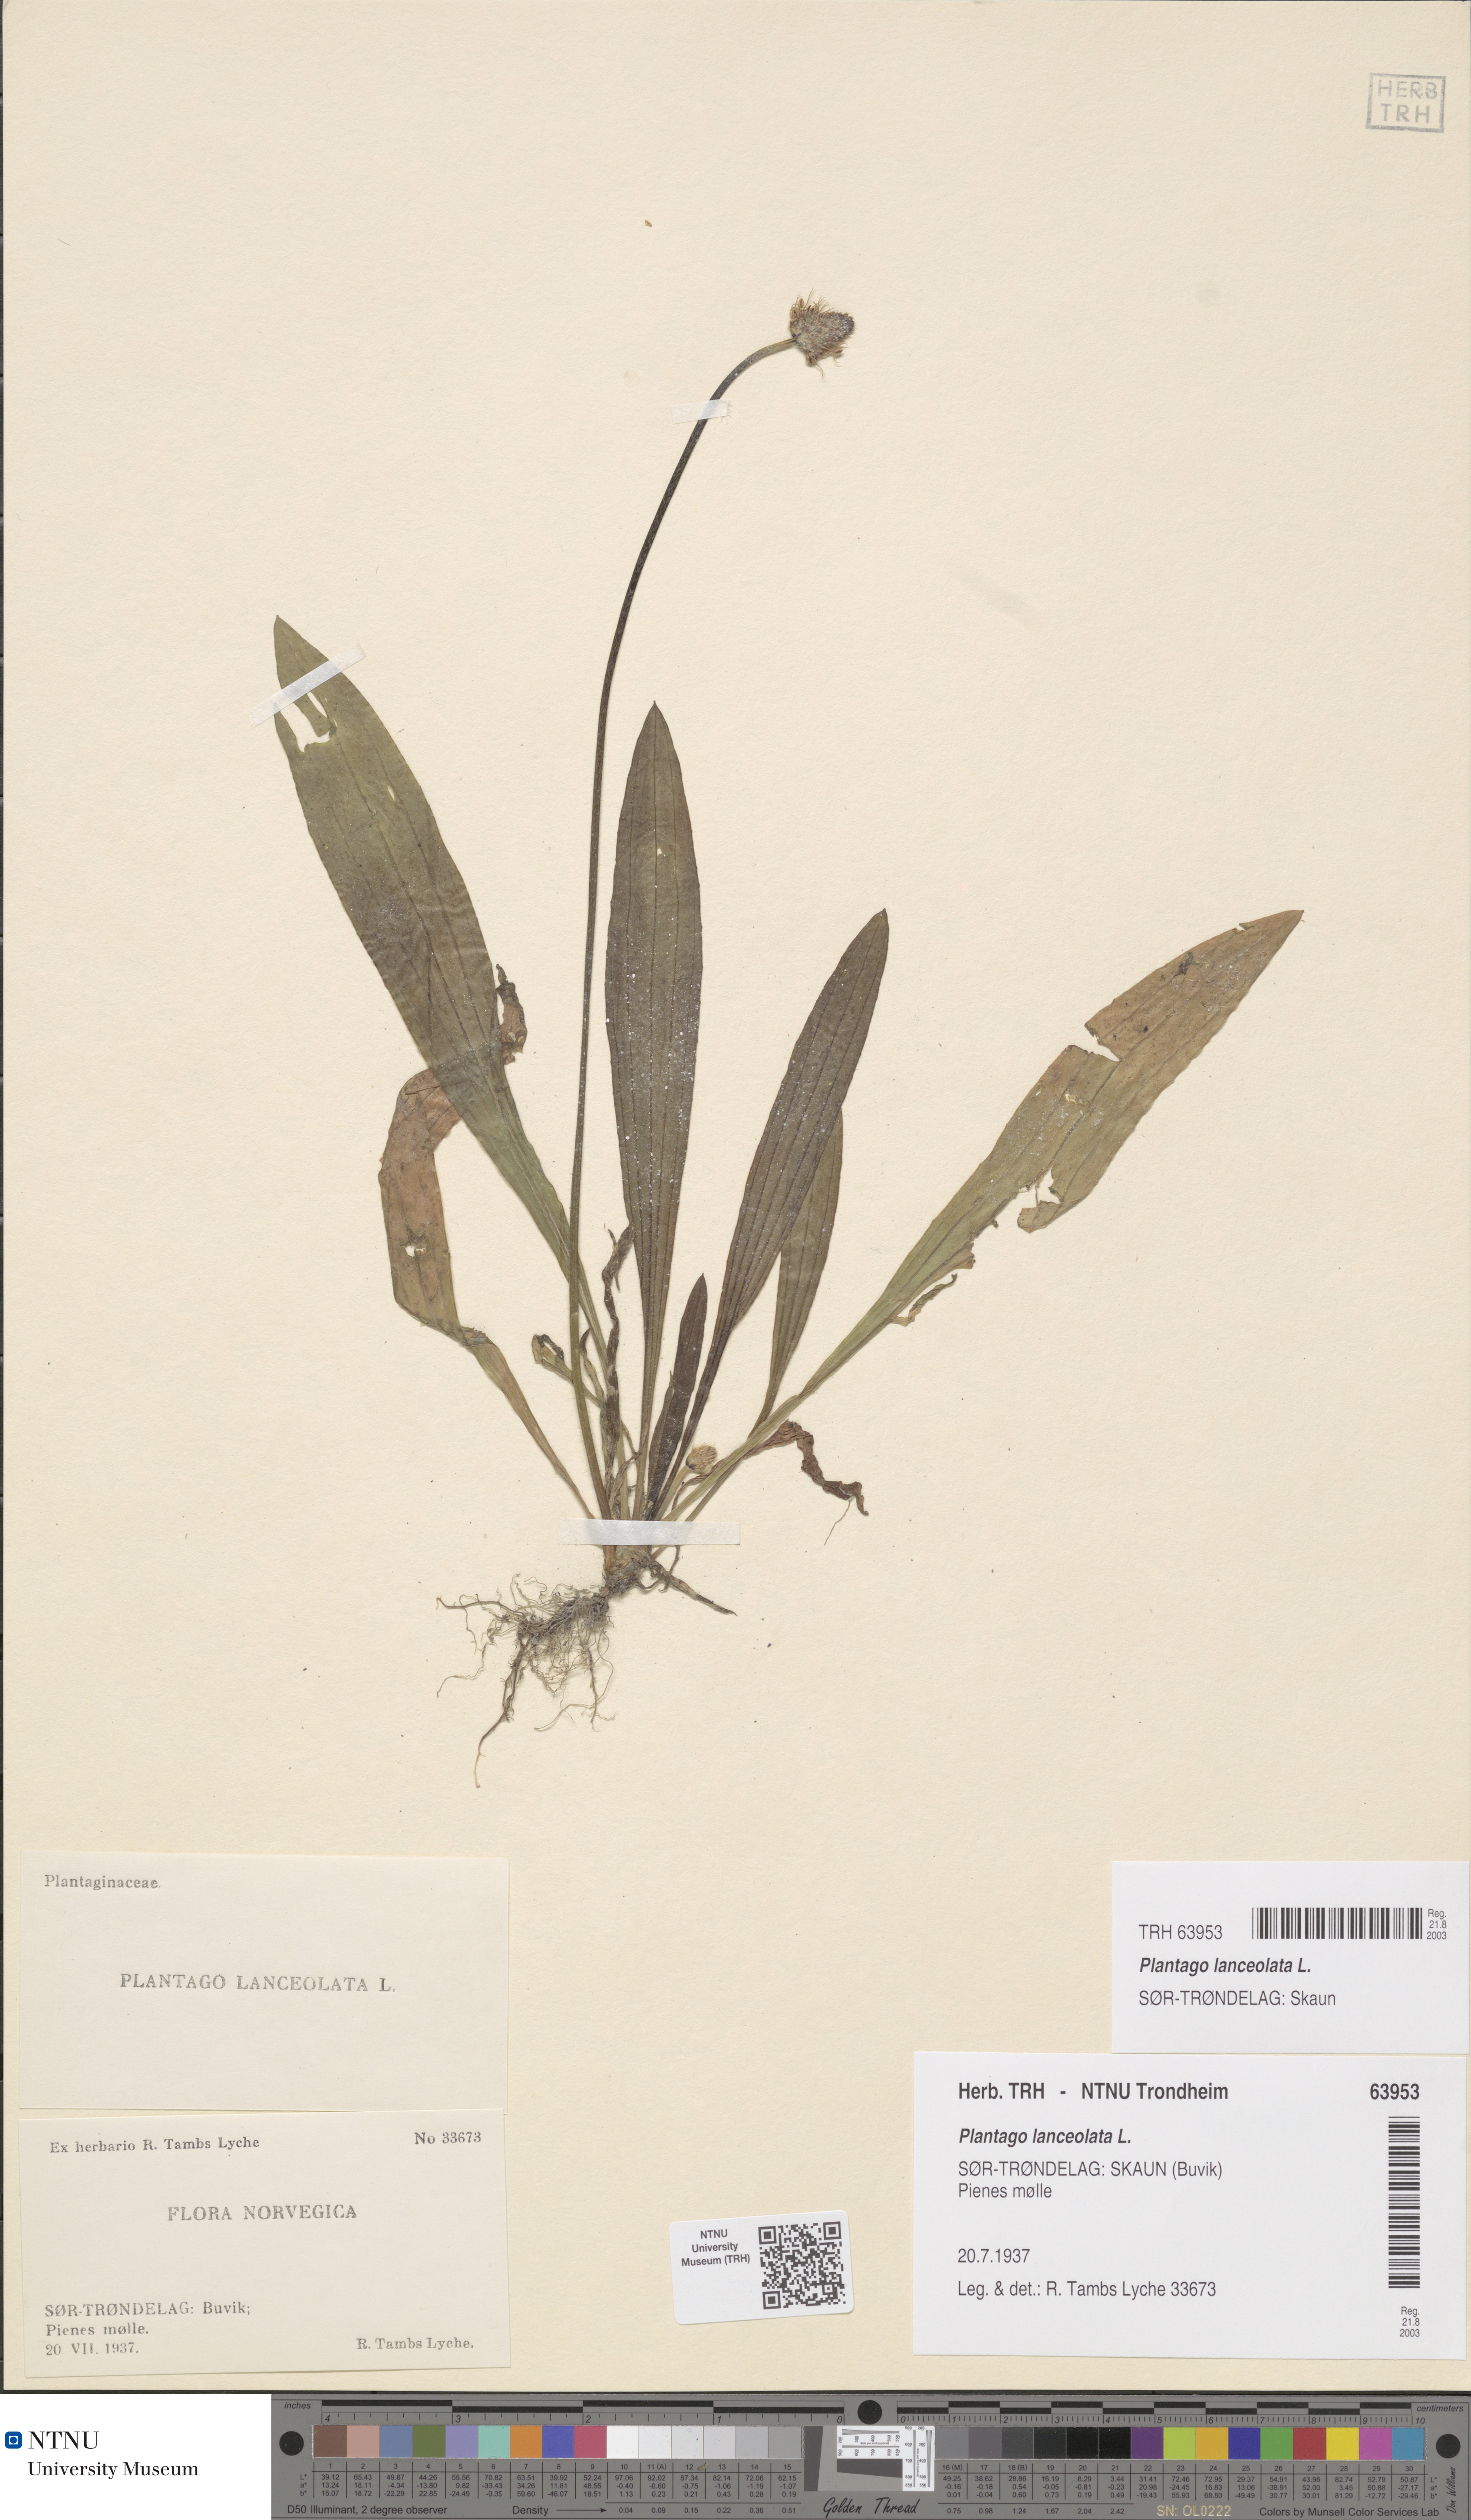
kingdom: Plantae
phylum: Tracheophyta
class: Magnoliopsida
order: Lamiales
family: Plantaginaceae
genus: Plantago
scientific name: Plantago lanceolata
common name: Ribwort plantain
